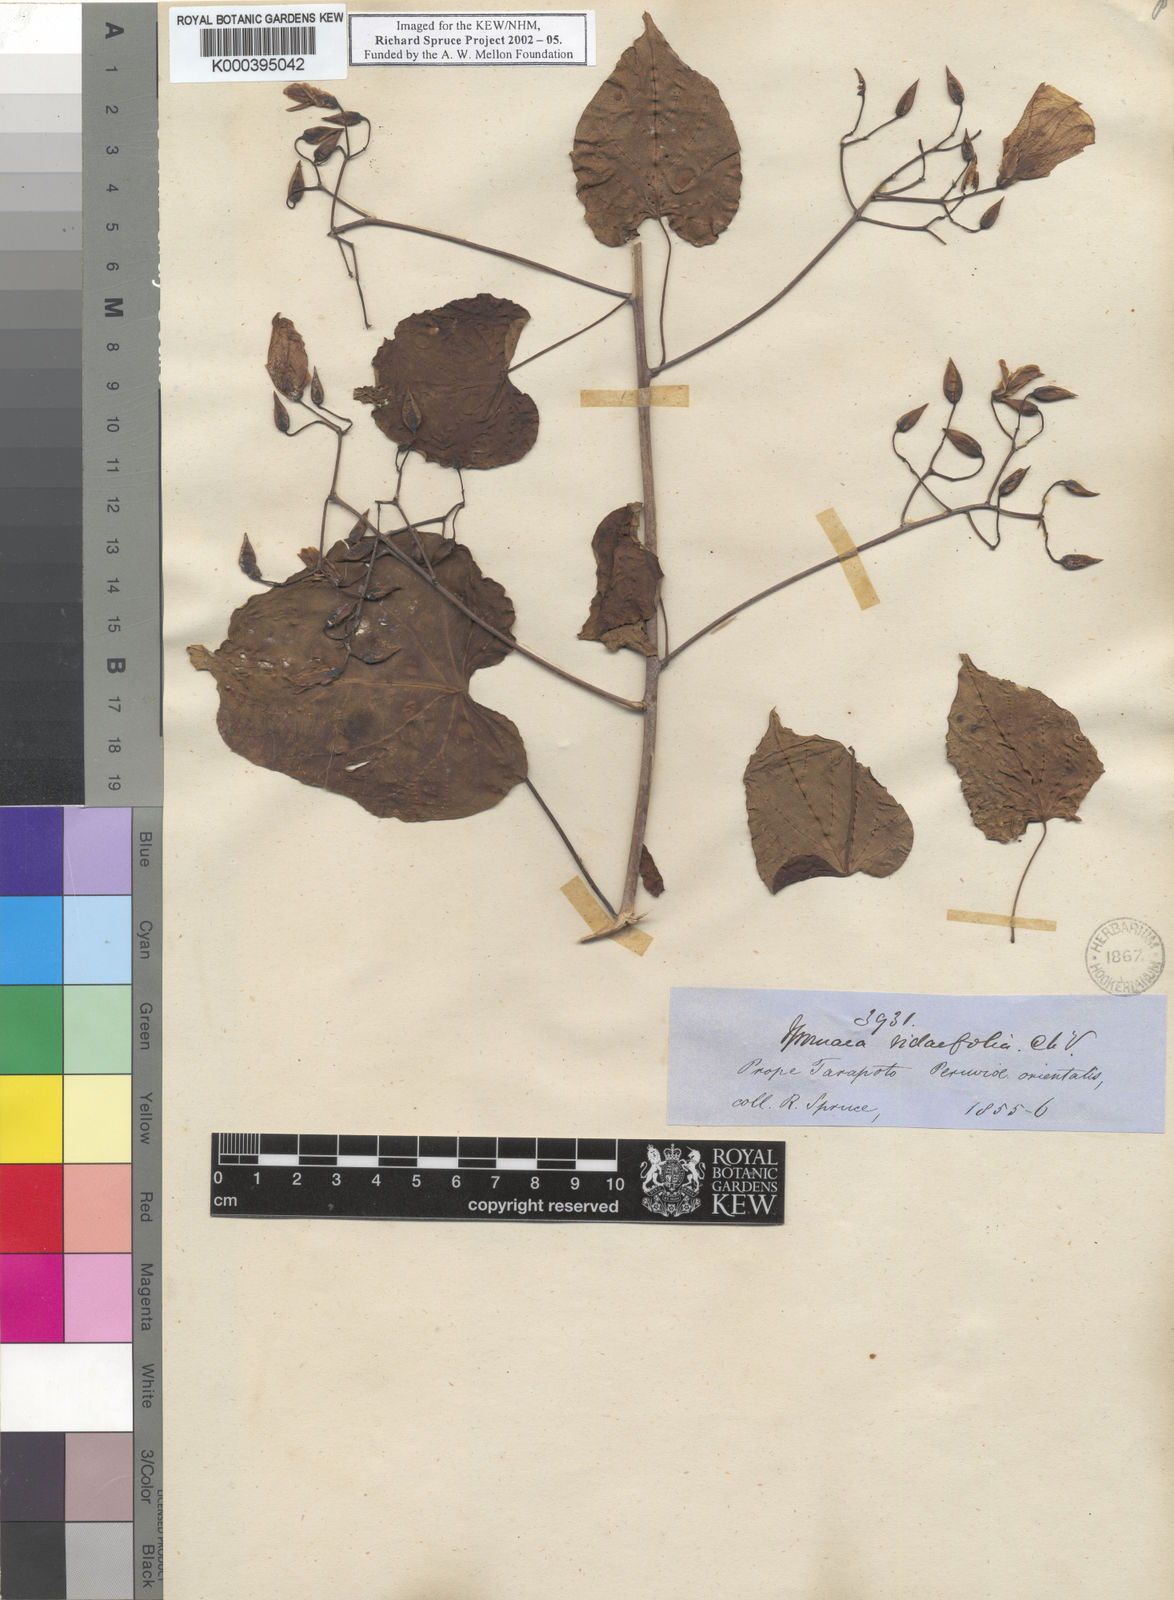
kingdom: Plantae
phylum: Tracheophyta
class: Magnoliopsida
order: Solanales
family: Convolvulaceae
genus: Ipomoea
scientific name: Ipomoea corymbosa
